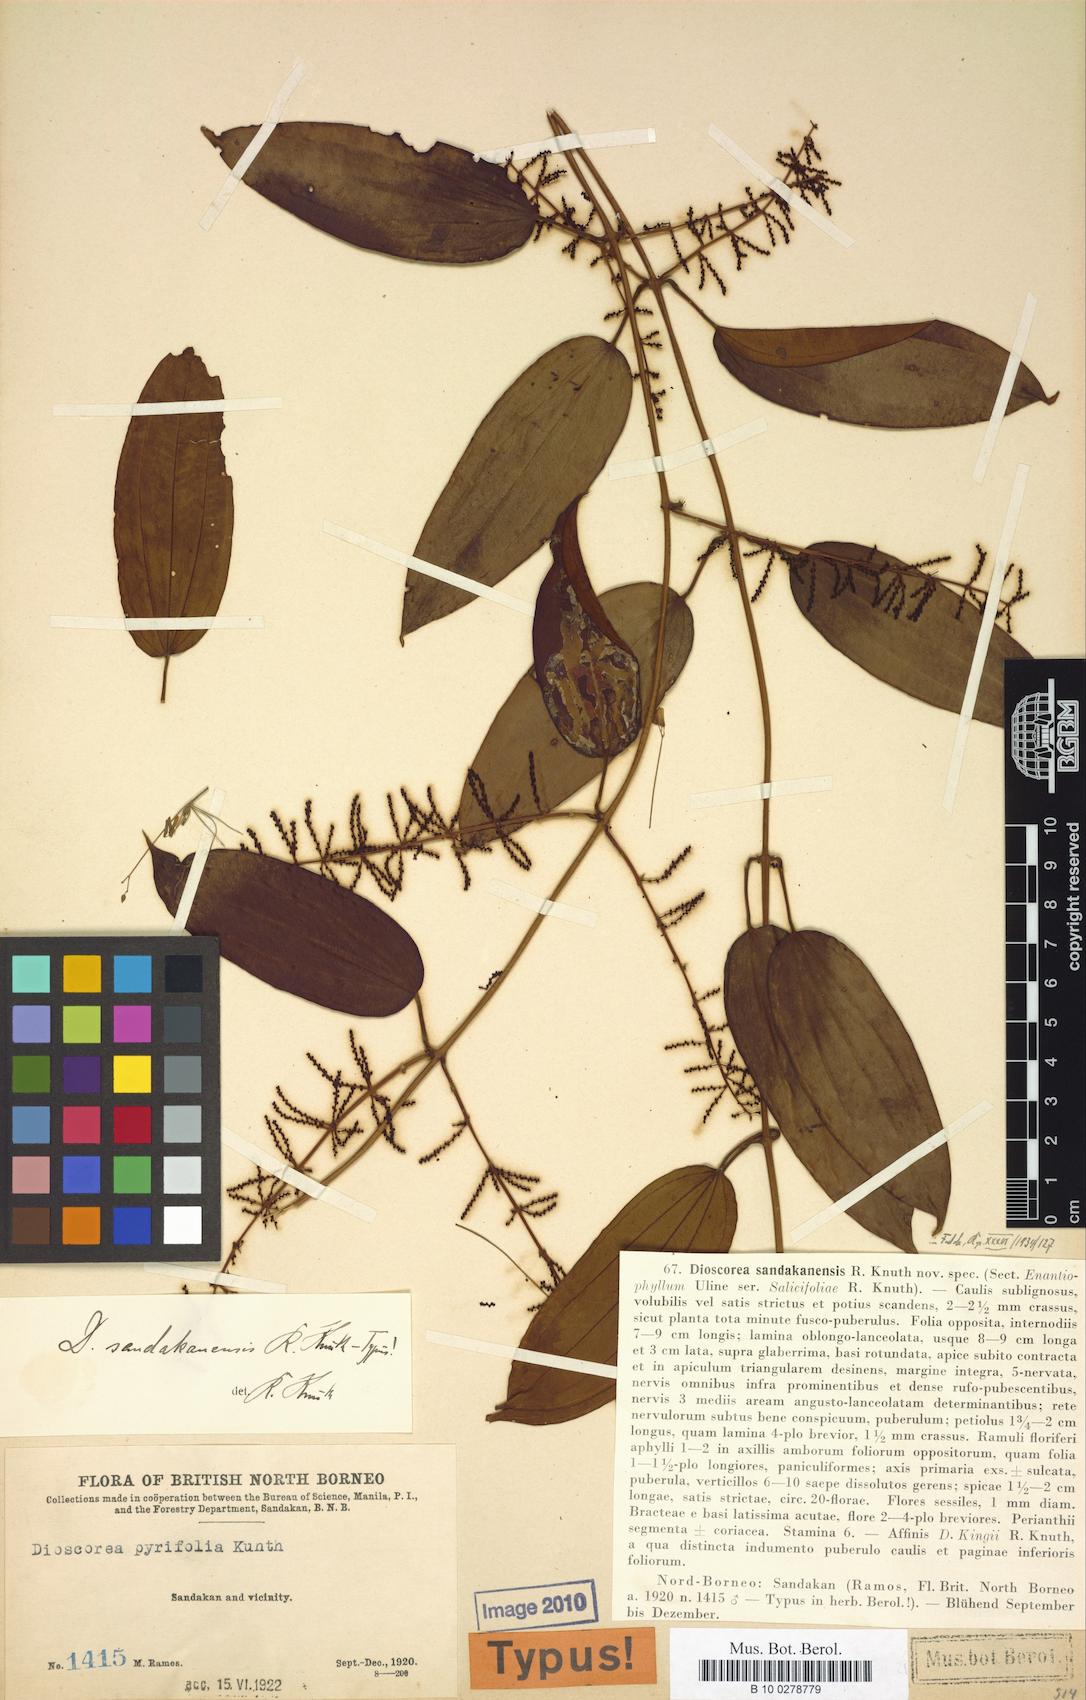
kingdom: Plantae
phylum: Tracheophyta
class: Liliopsida
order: Dioscoreales
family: Dioscoreaceae
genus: Dioscorea
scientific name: Dioscorea pyrifolia
